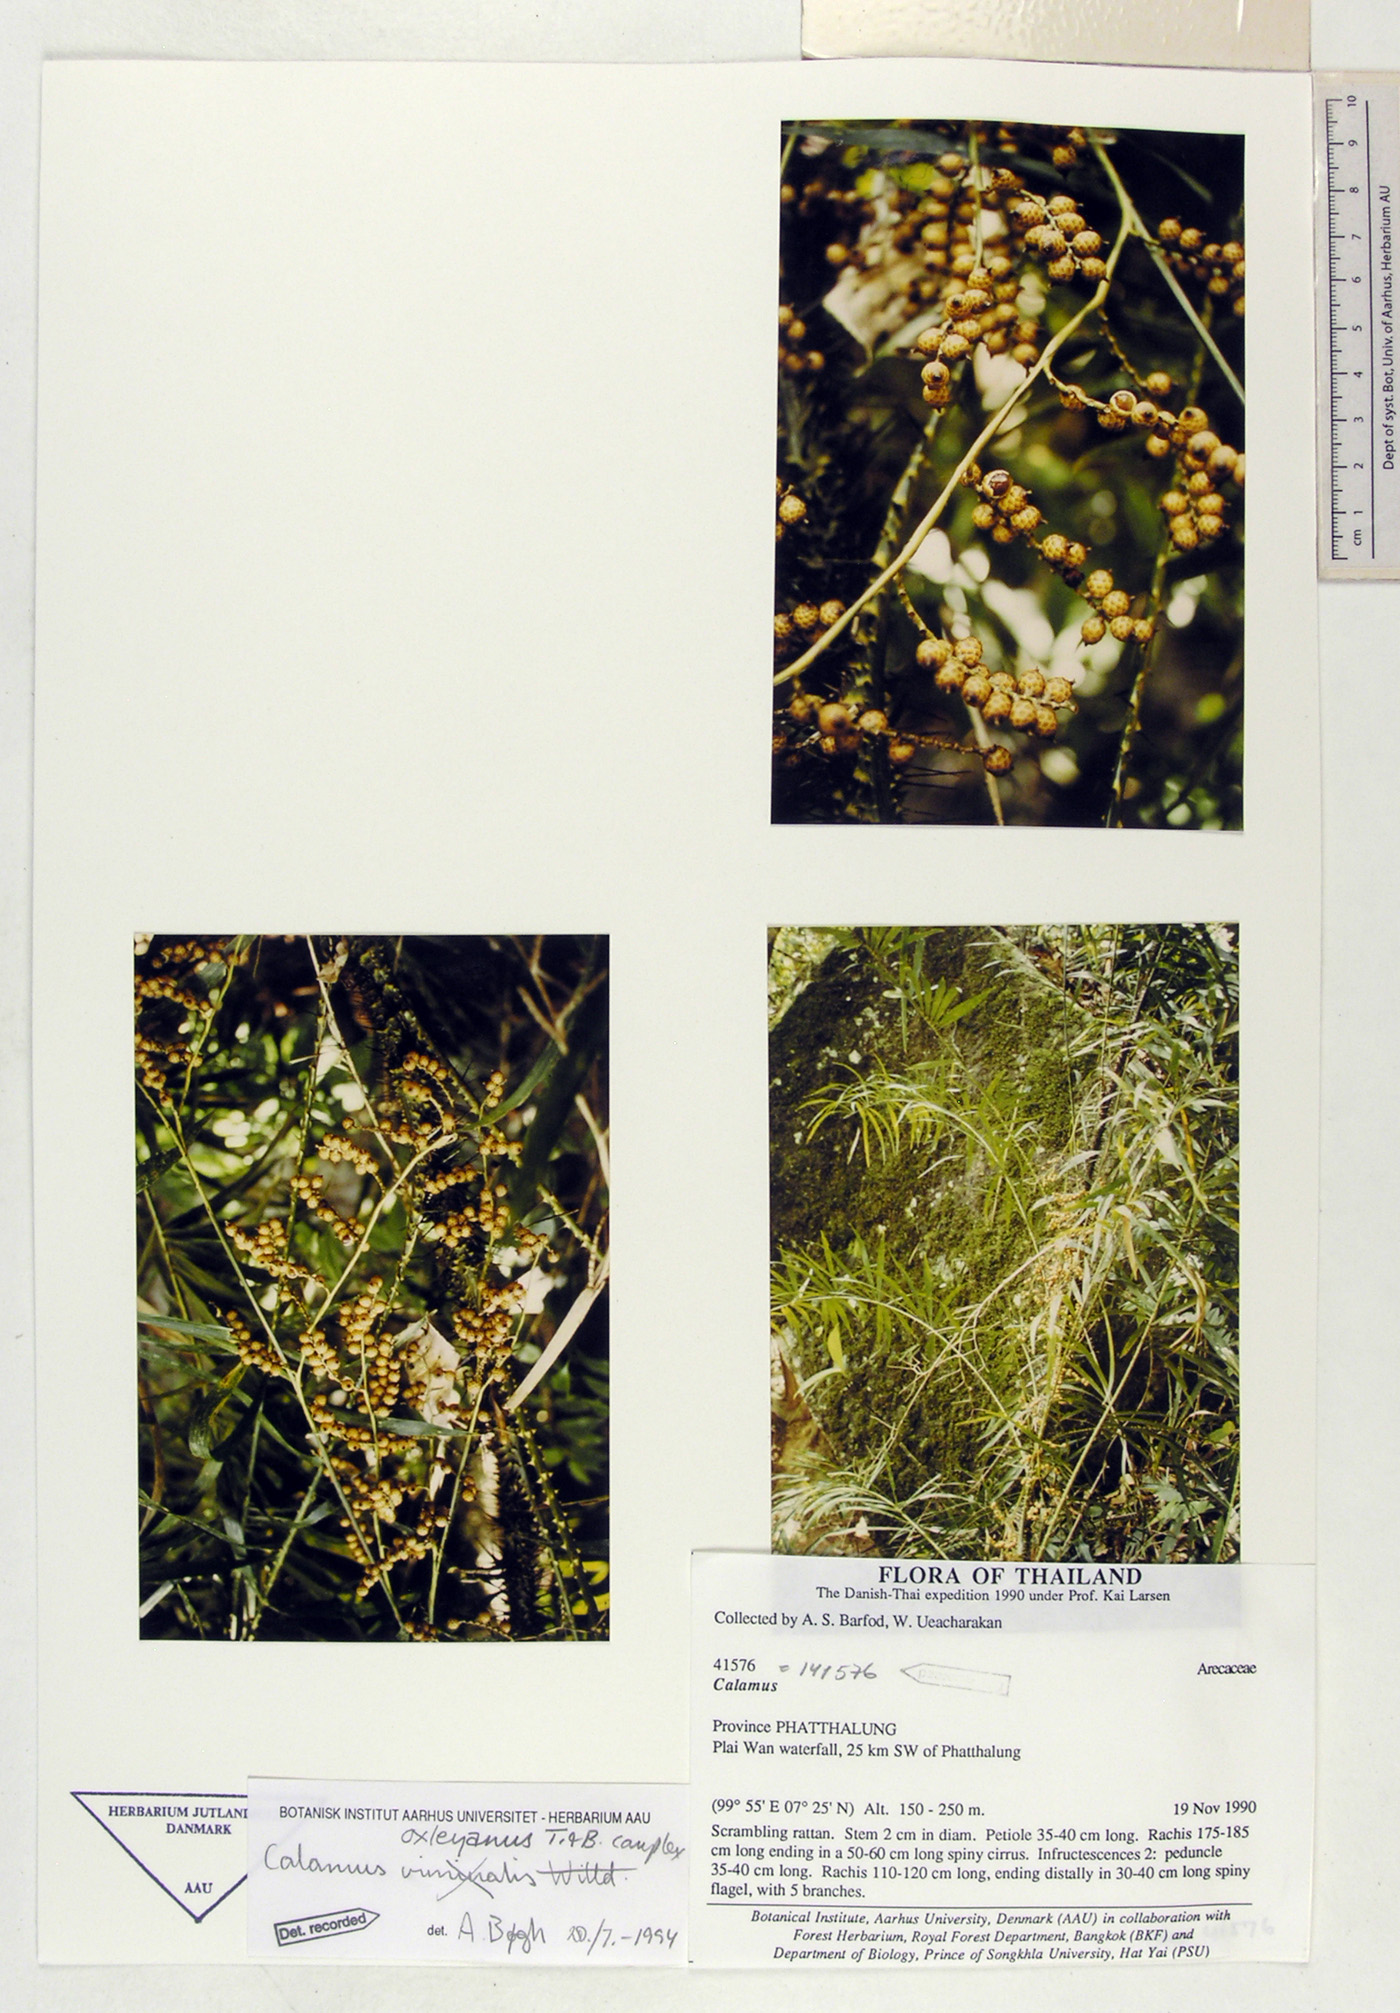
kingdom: Plantae
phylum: Tracheophyta
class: Liliopsida
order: Arecales
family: Arecaceae
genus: Calamus
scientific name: Calamus oxleyanus
